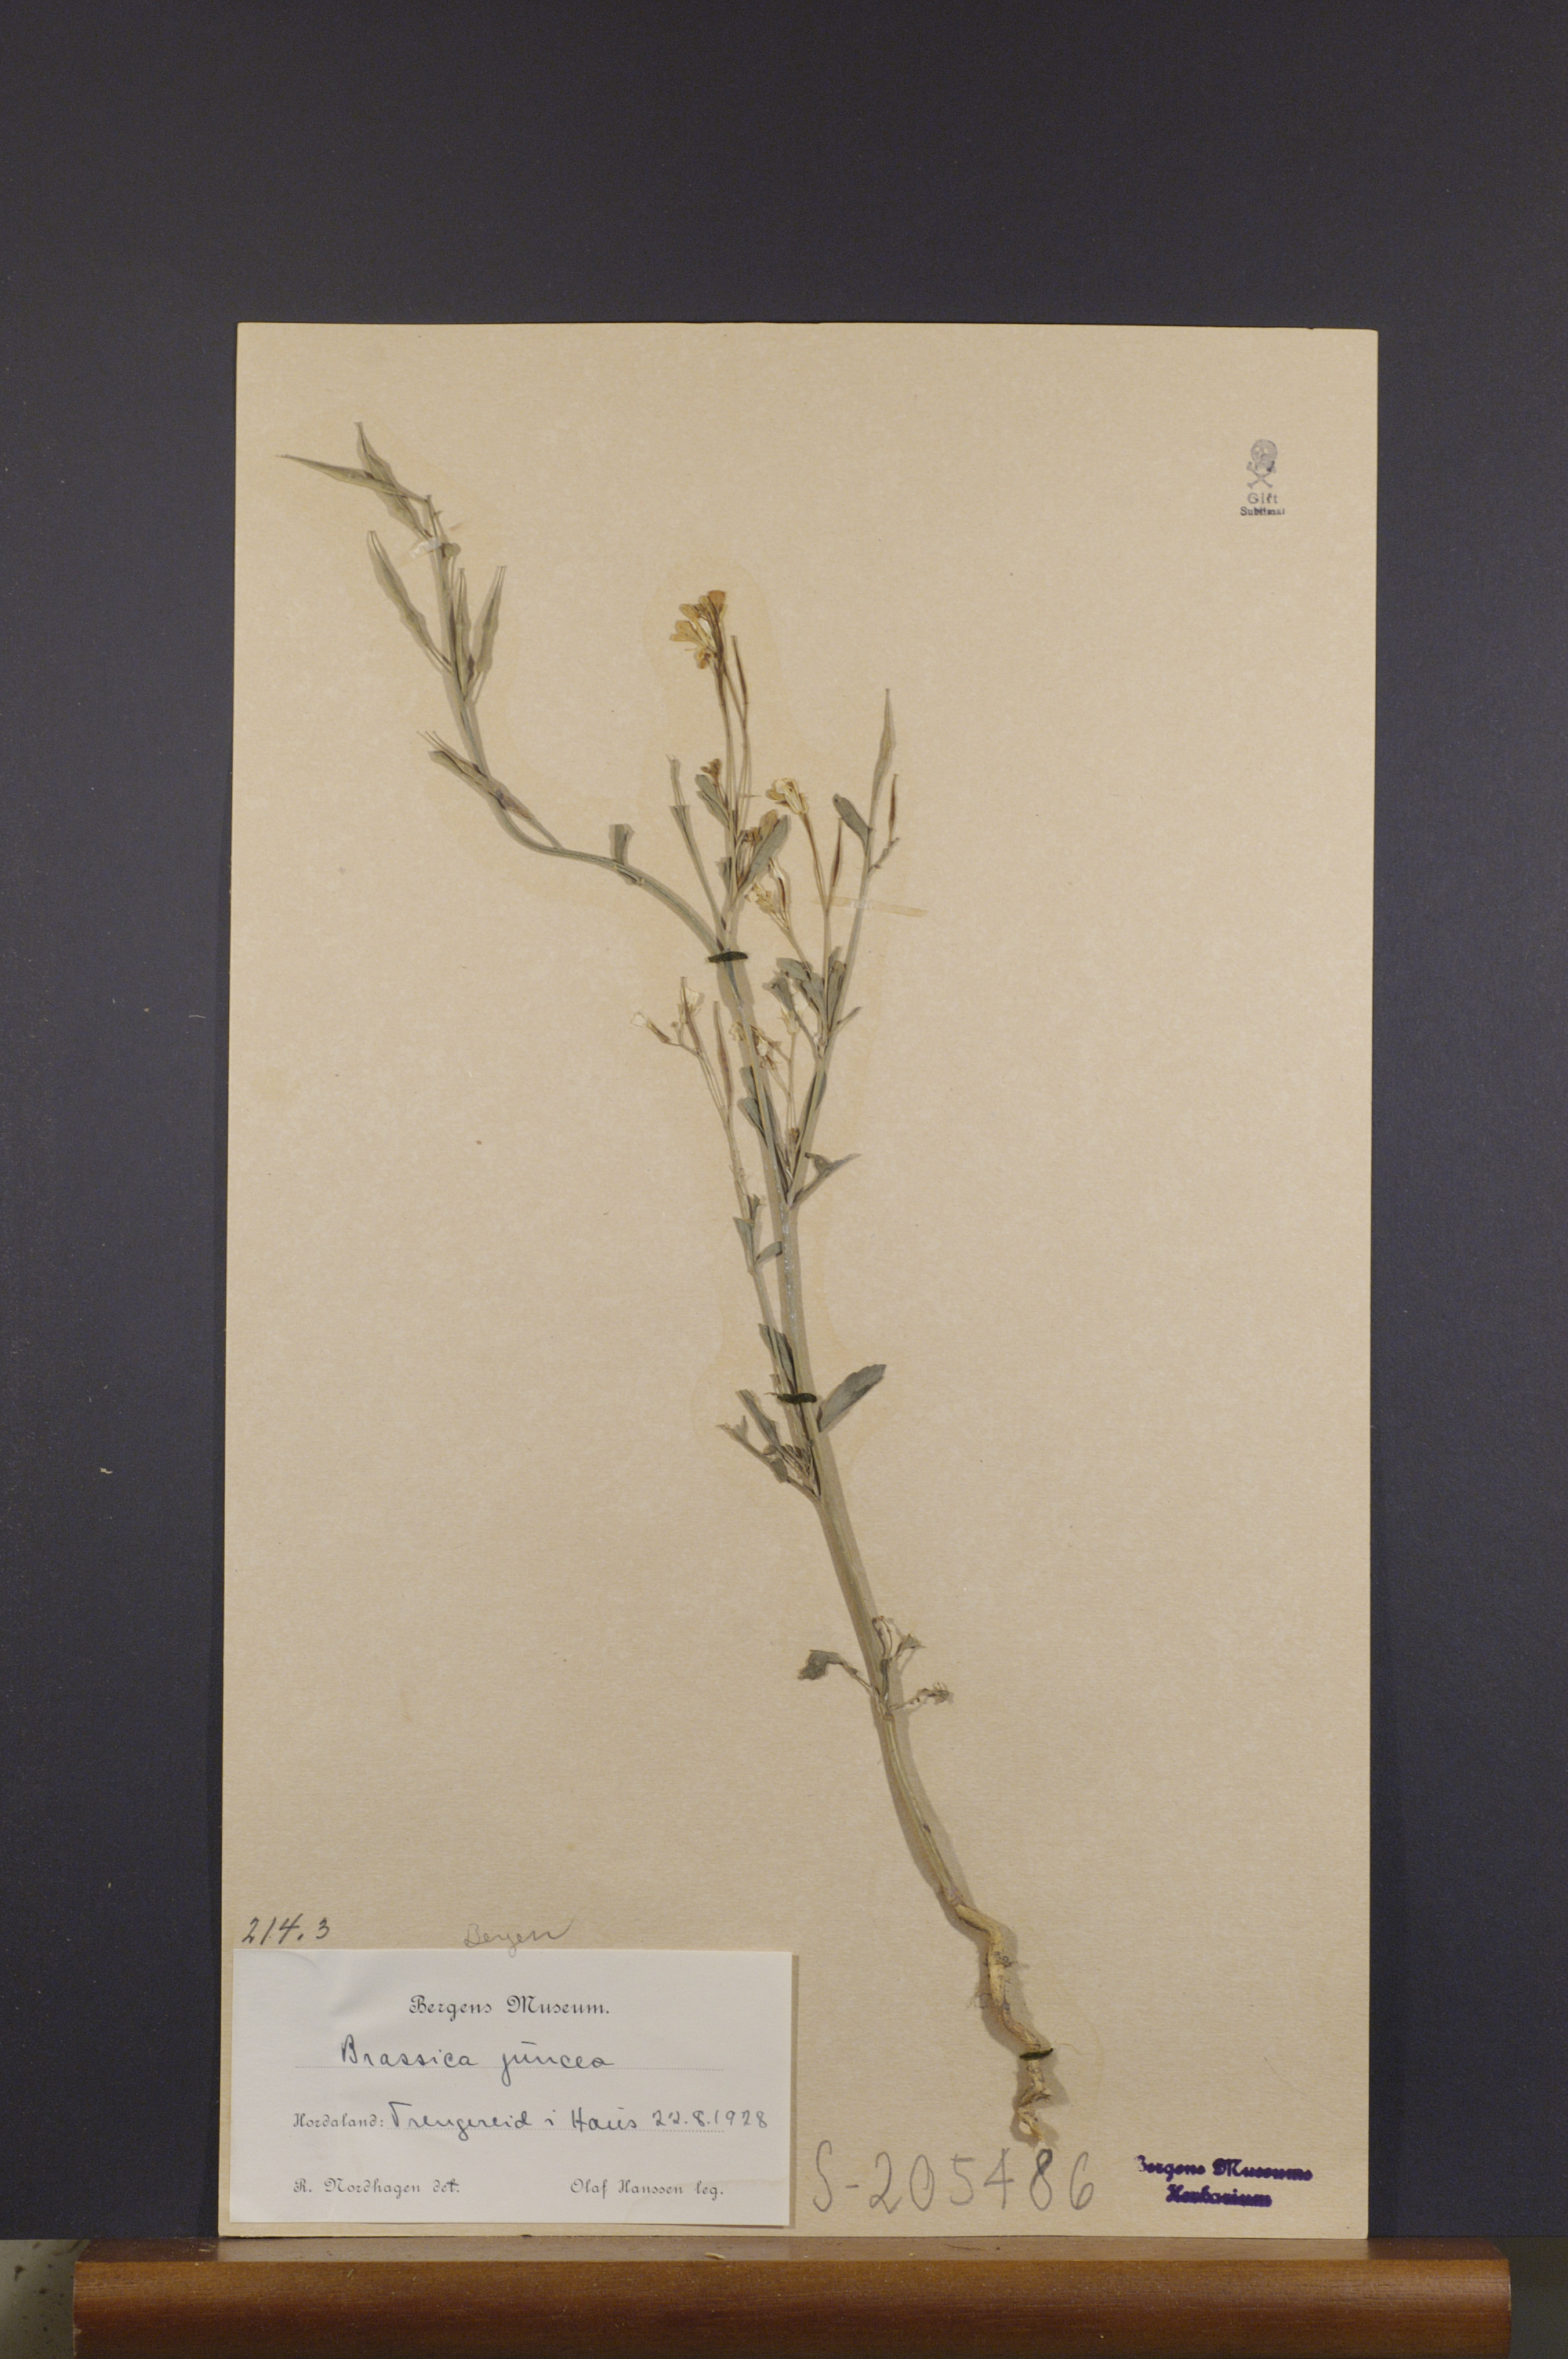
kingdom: Plantae
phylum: Tracheophyta
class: Magnoliopsida
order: Brassicales
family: Brassicaceae
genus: Brassica
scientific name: Brassica juncea
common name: Brown mustard
